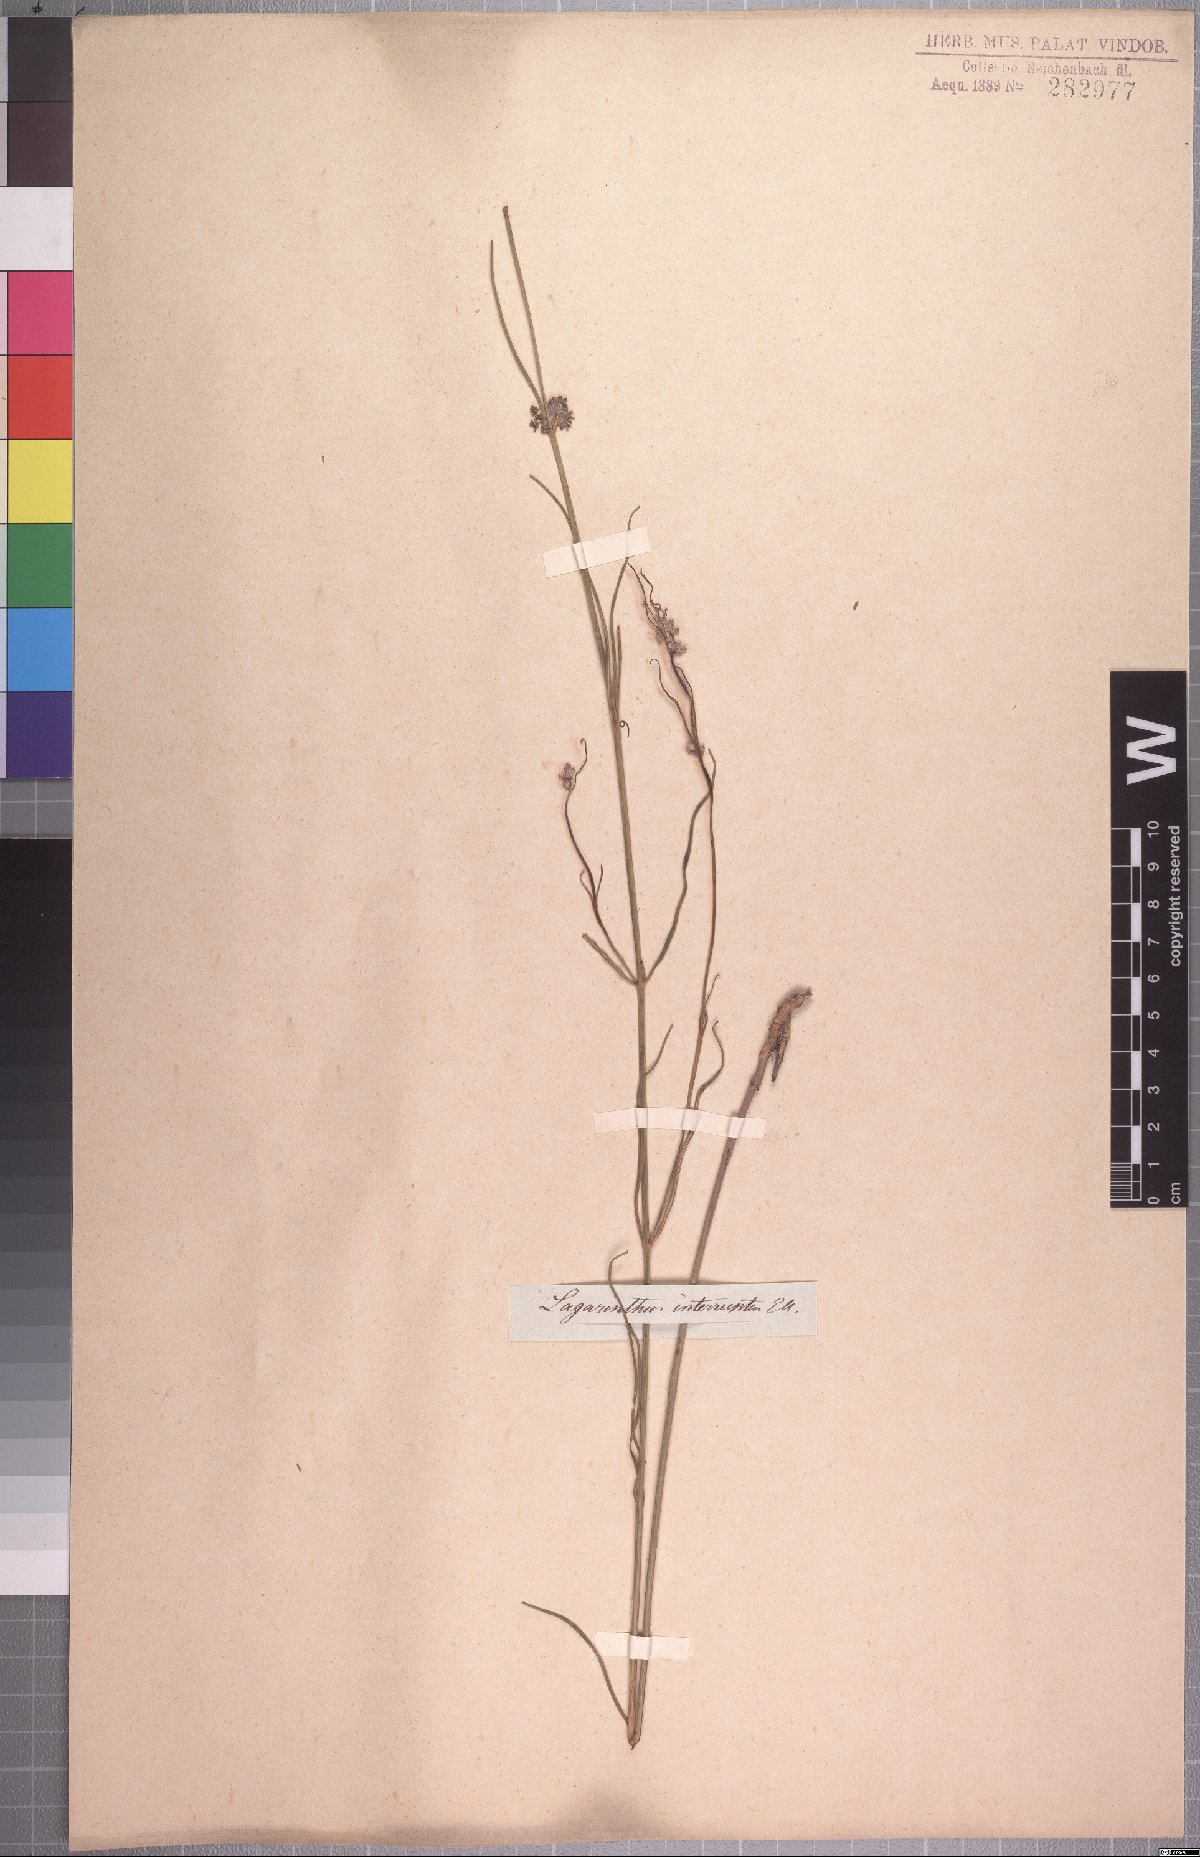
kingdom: Plantae
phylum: Tracheophyta
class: Magnoliopsida
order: Gentianales
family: Apocynaceae
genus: Aspidoglossum
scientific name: Aspidoglossum interruptum
